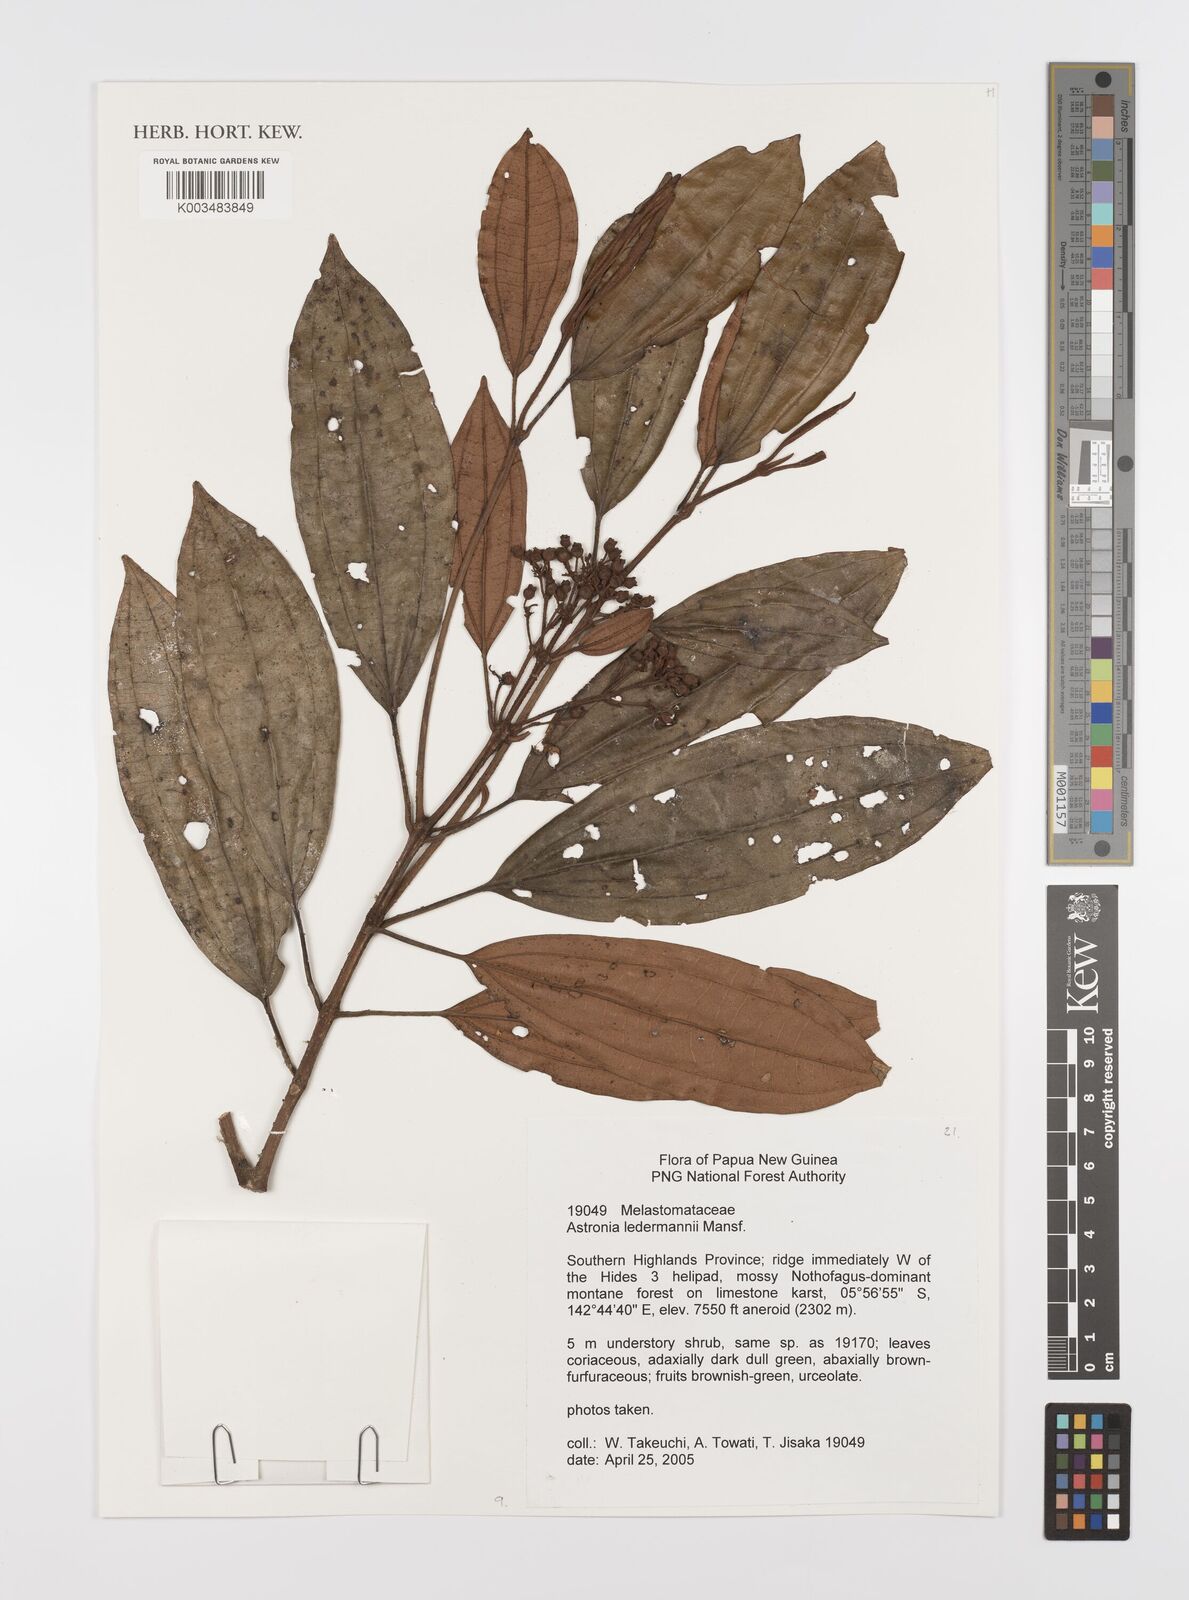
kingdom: Plantae
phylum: Tracheophyta
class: Magnoliopsida
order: Myrtales
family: Melastomataceae
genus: Astronia
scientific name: Astronia ledermannii
